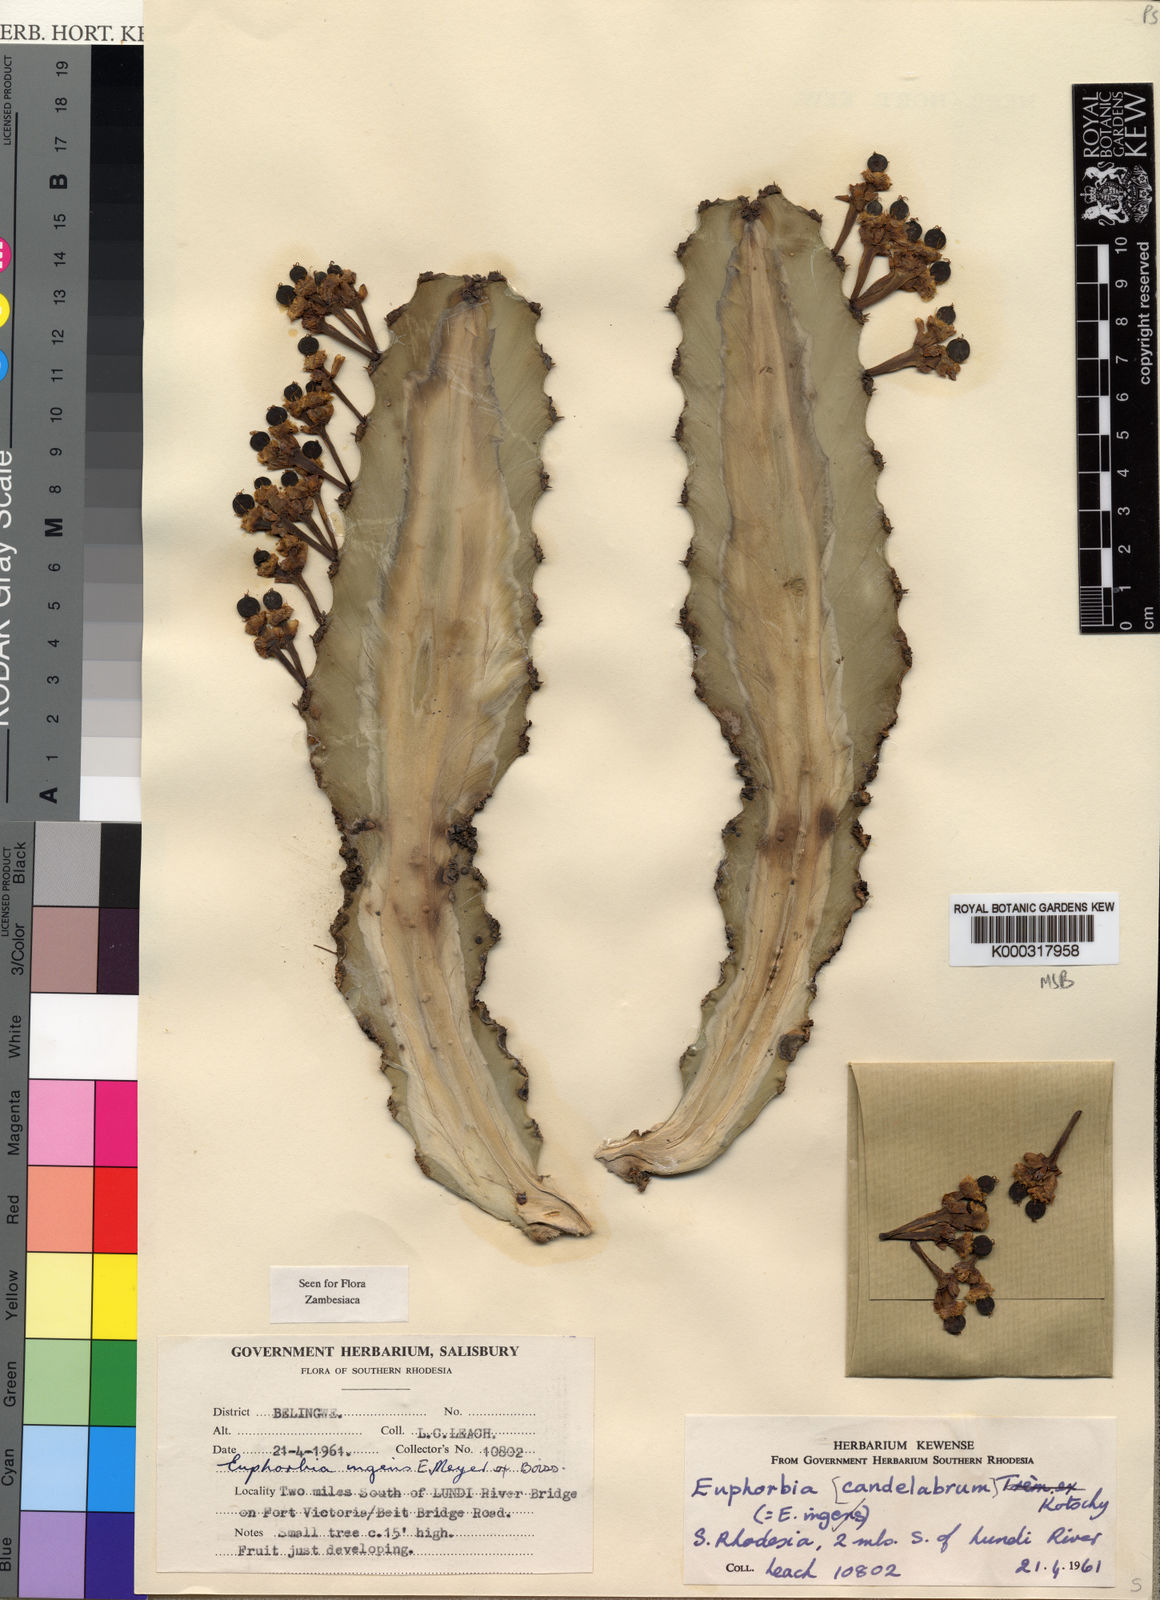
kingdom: Plantae
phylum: Tracheophyta
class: Magnoliopsida
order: Malpighiales
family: Euphorbiaceae
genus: Euphorbia
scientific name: Euphorbia ingens
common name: Cactus spurge
